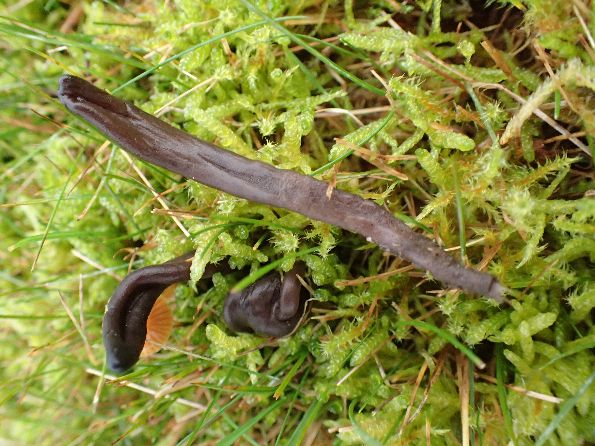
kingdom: Fungi
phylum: Ascomycota
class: Geoglossomycetes
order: Geoglossales
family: Geoglossaceae
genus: Geoglossum
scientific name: Geoglossum fallax
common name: småskællet jordtunge
